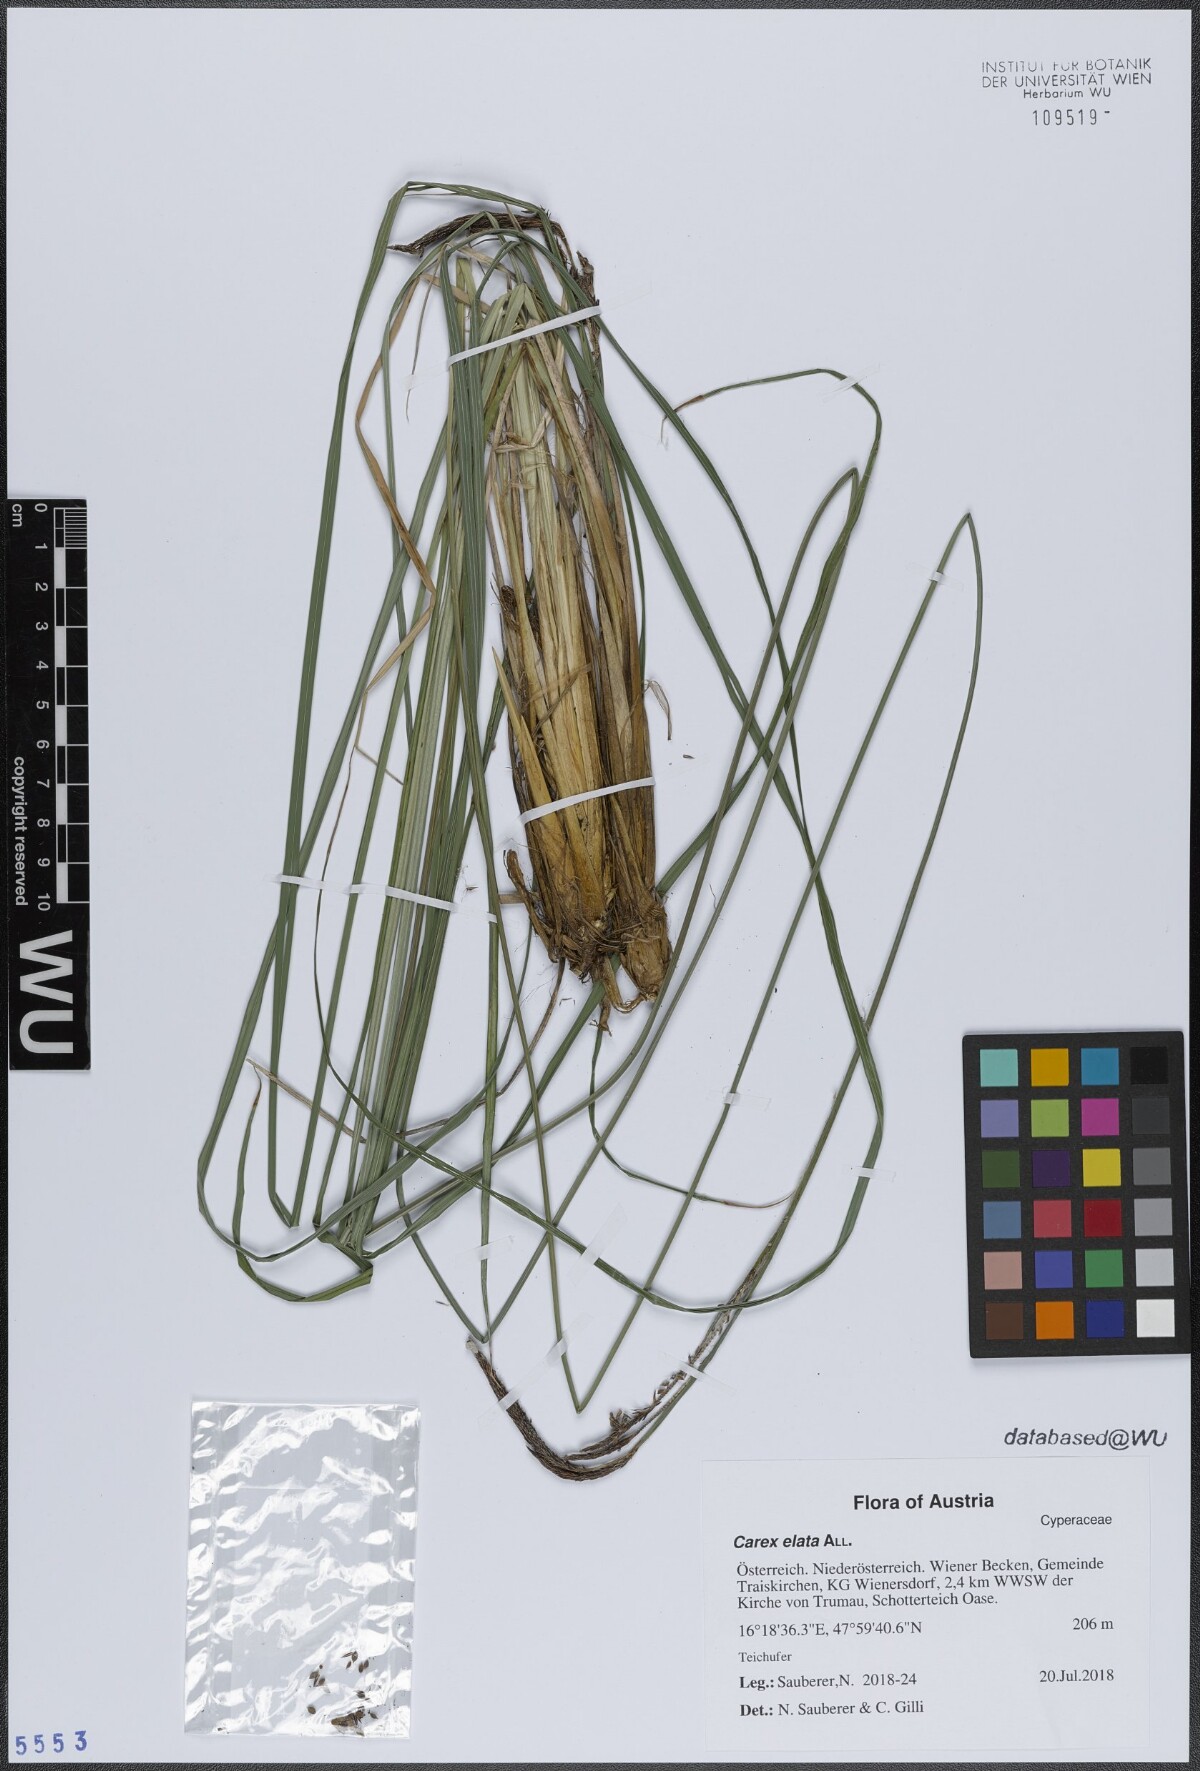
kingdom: Plantae
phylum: Tracheophyta
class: Liliopsida
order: Poales
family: Cyperaceae
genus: Carex
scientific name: Carex elata
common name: Tufted sedge
